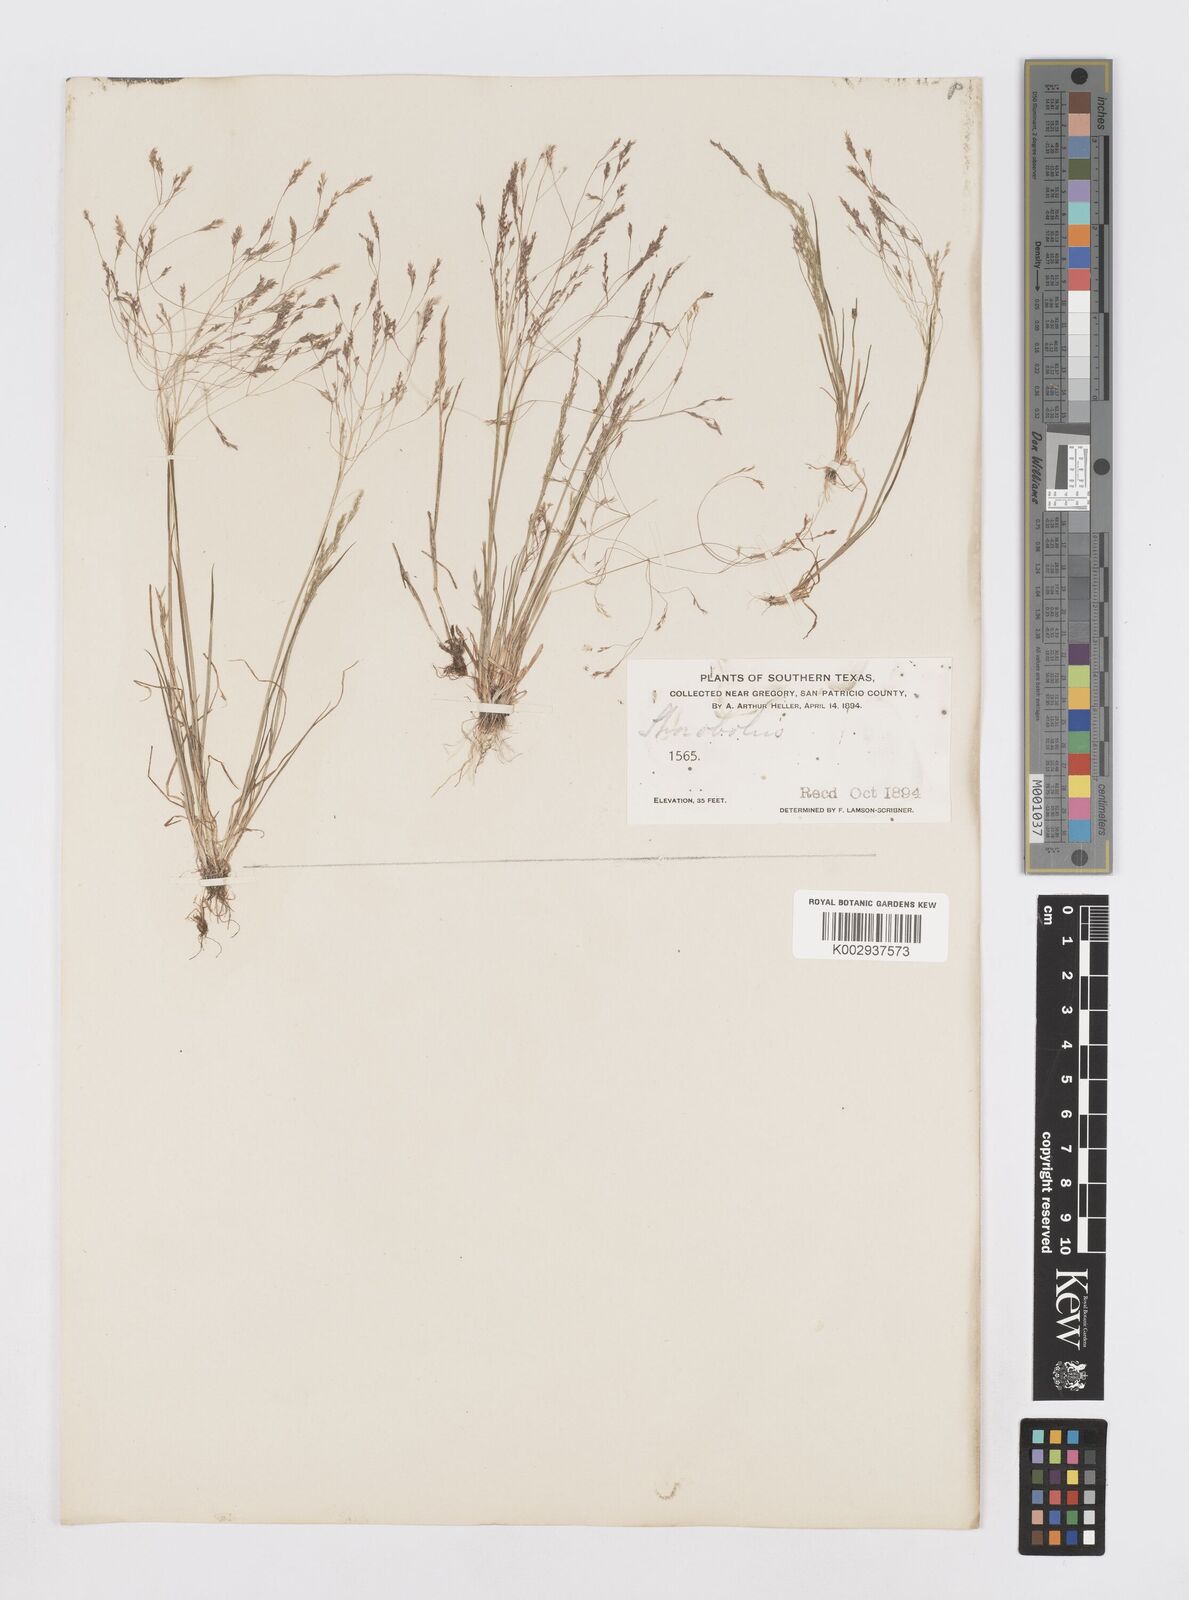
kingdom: Plantae
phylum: Tracheophyta
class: Liliopsida
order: Poales
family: Poaceae
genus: Sporobolus
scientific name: Sporobolus
